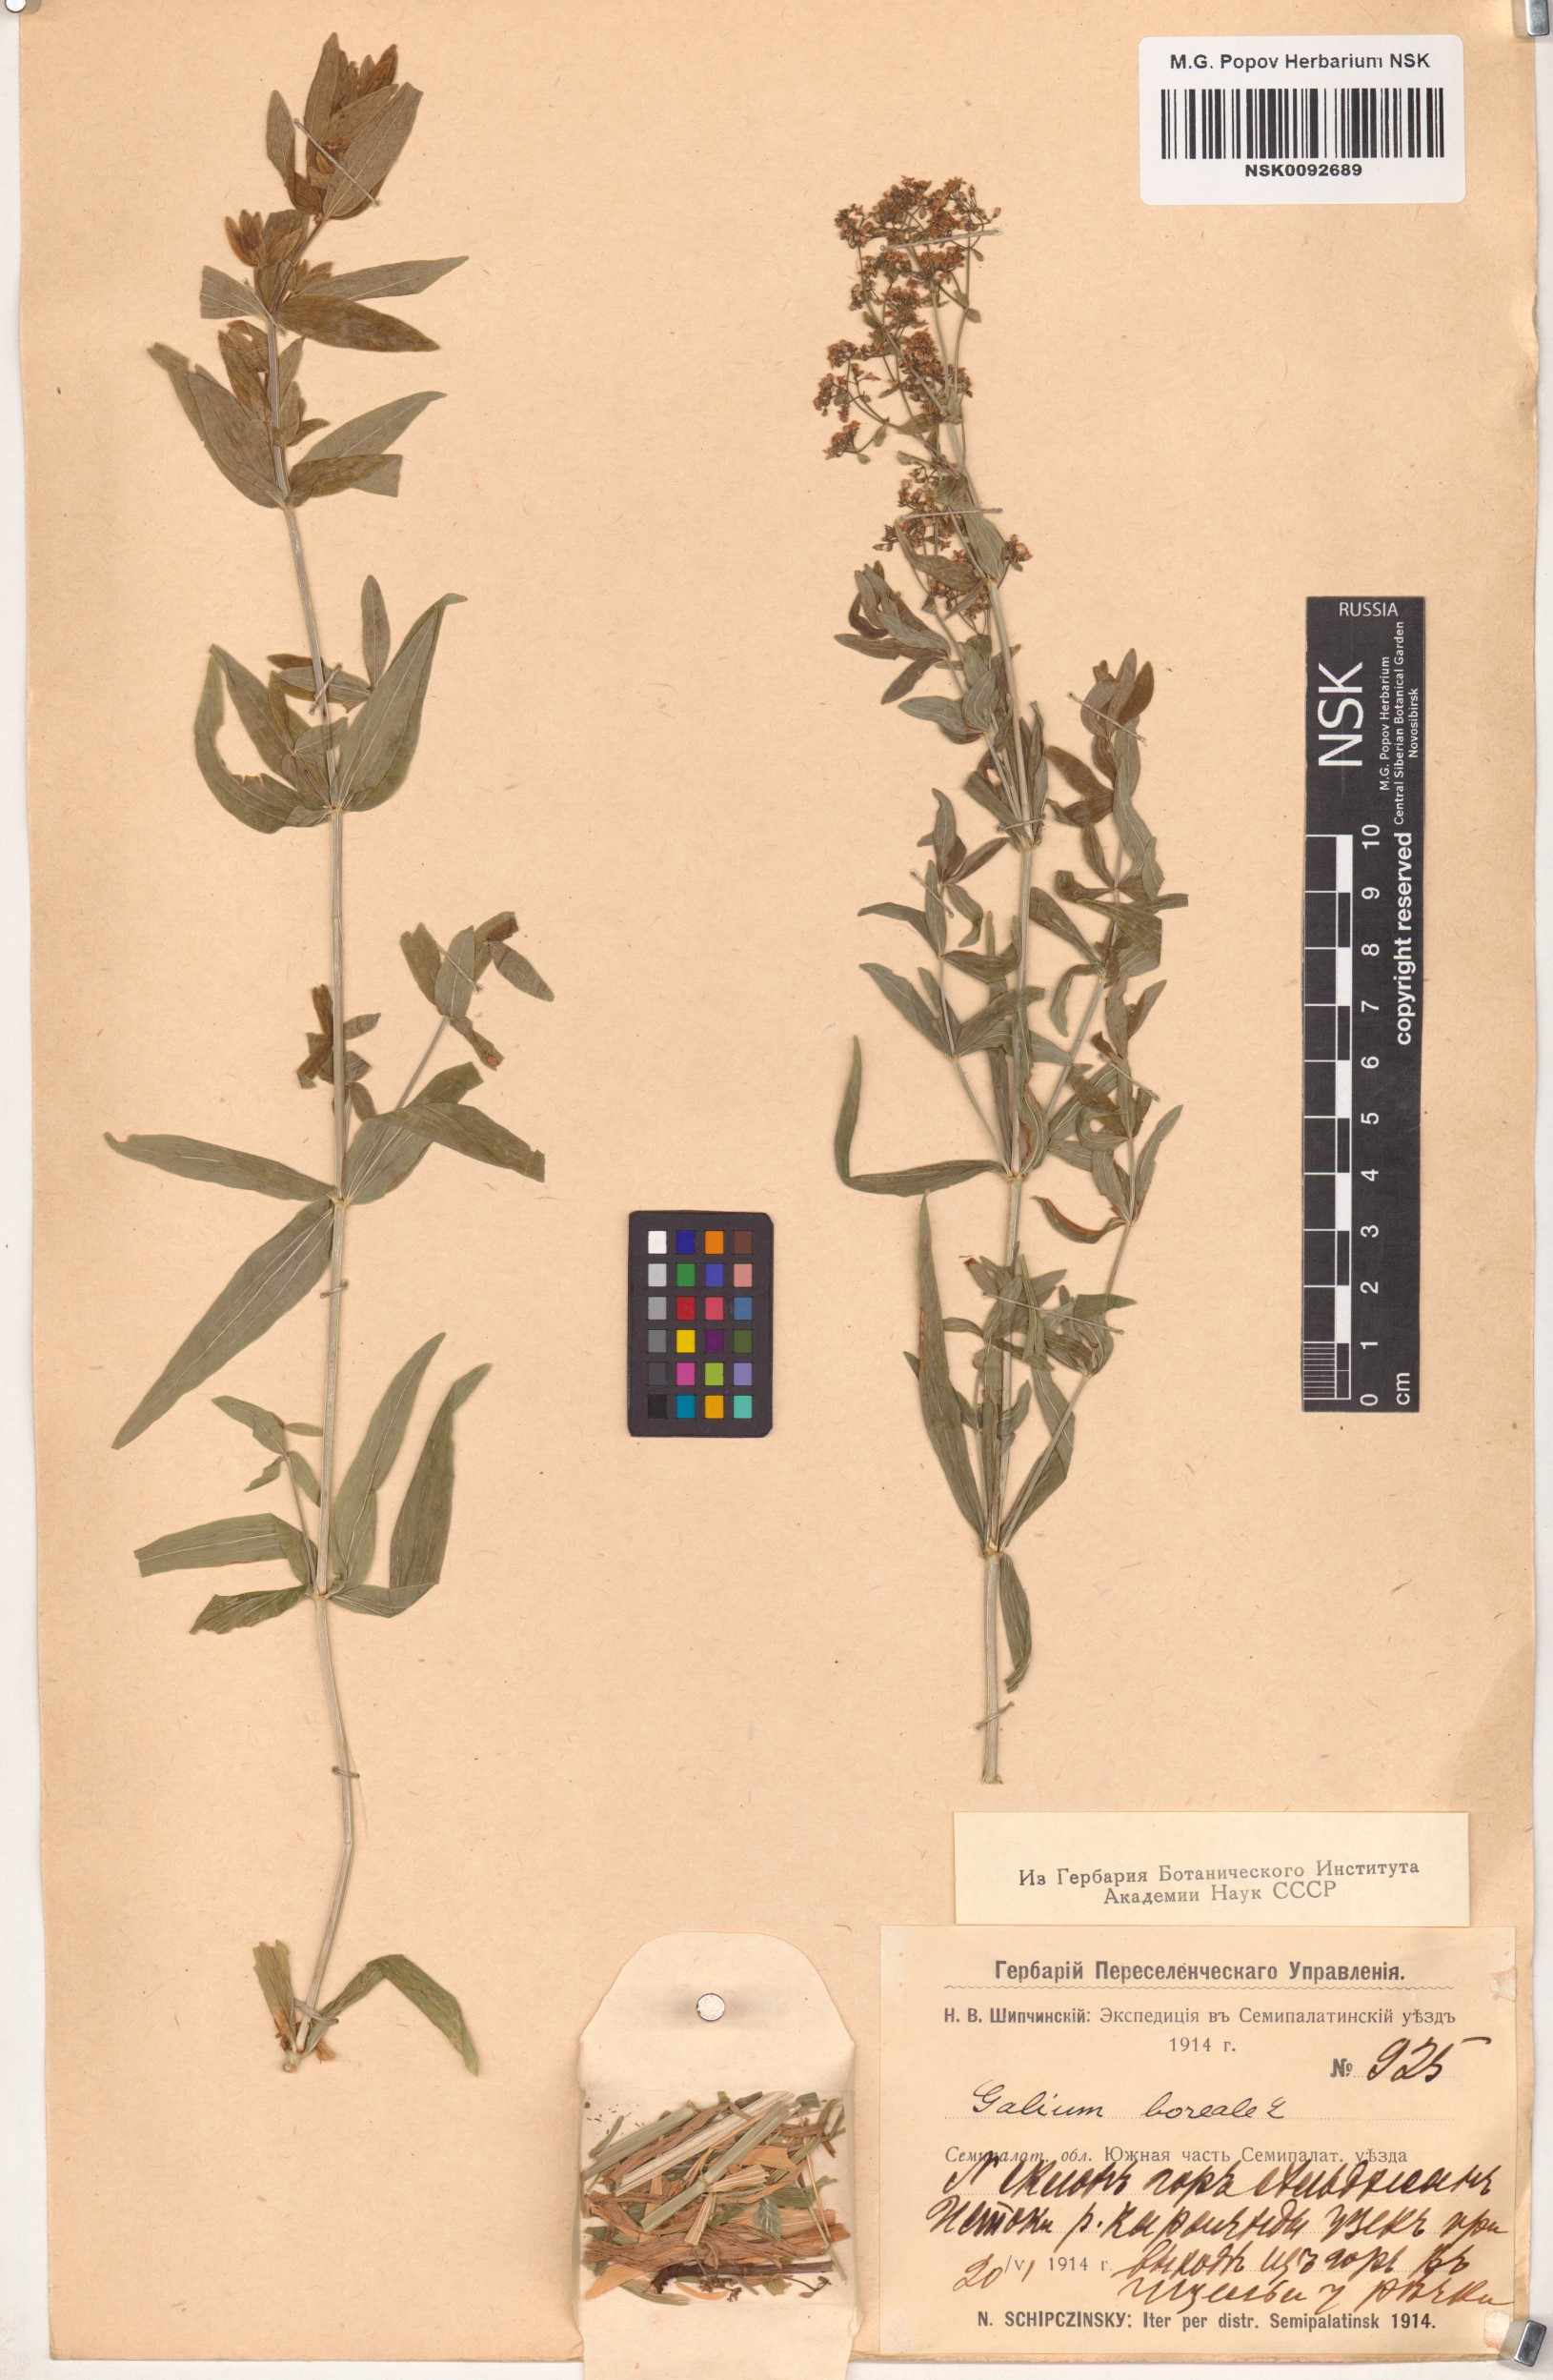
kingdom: Plantae
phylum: Tracheophyta
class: Magnoliopsida
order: Gentianales
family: Rubiaceae
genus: Galium
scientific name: Galium boreale
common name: Northern bedstraw
